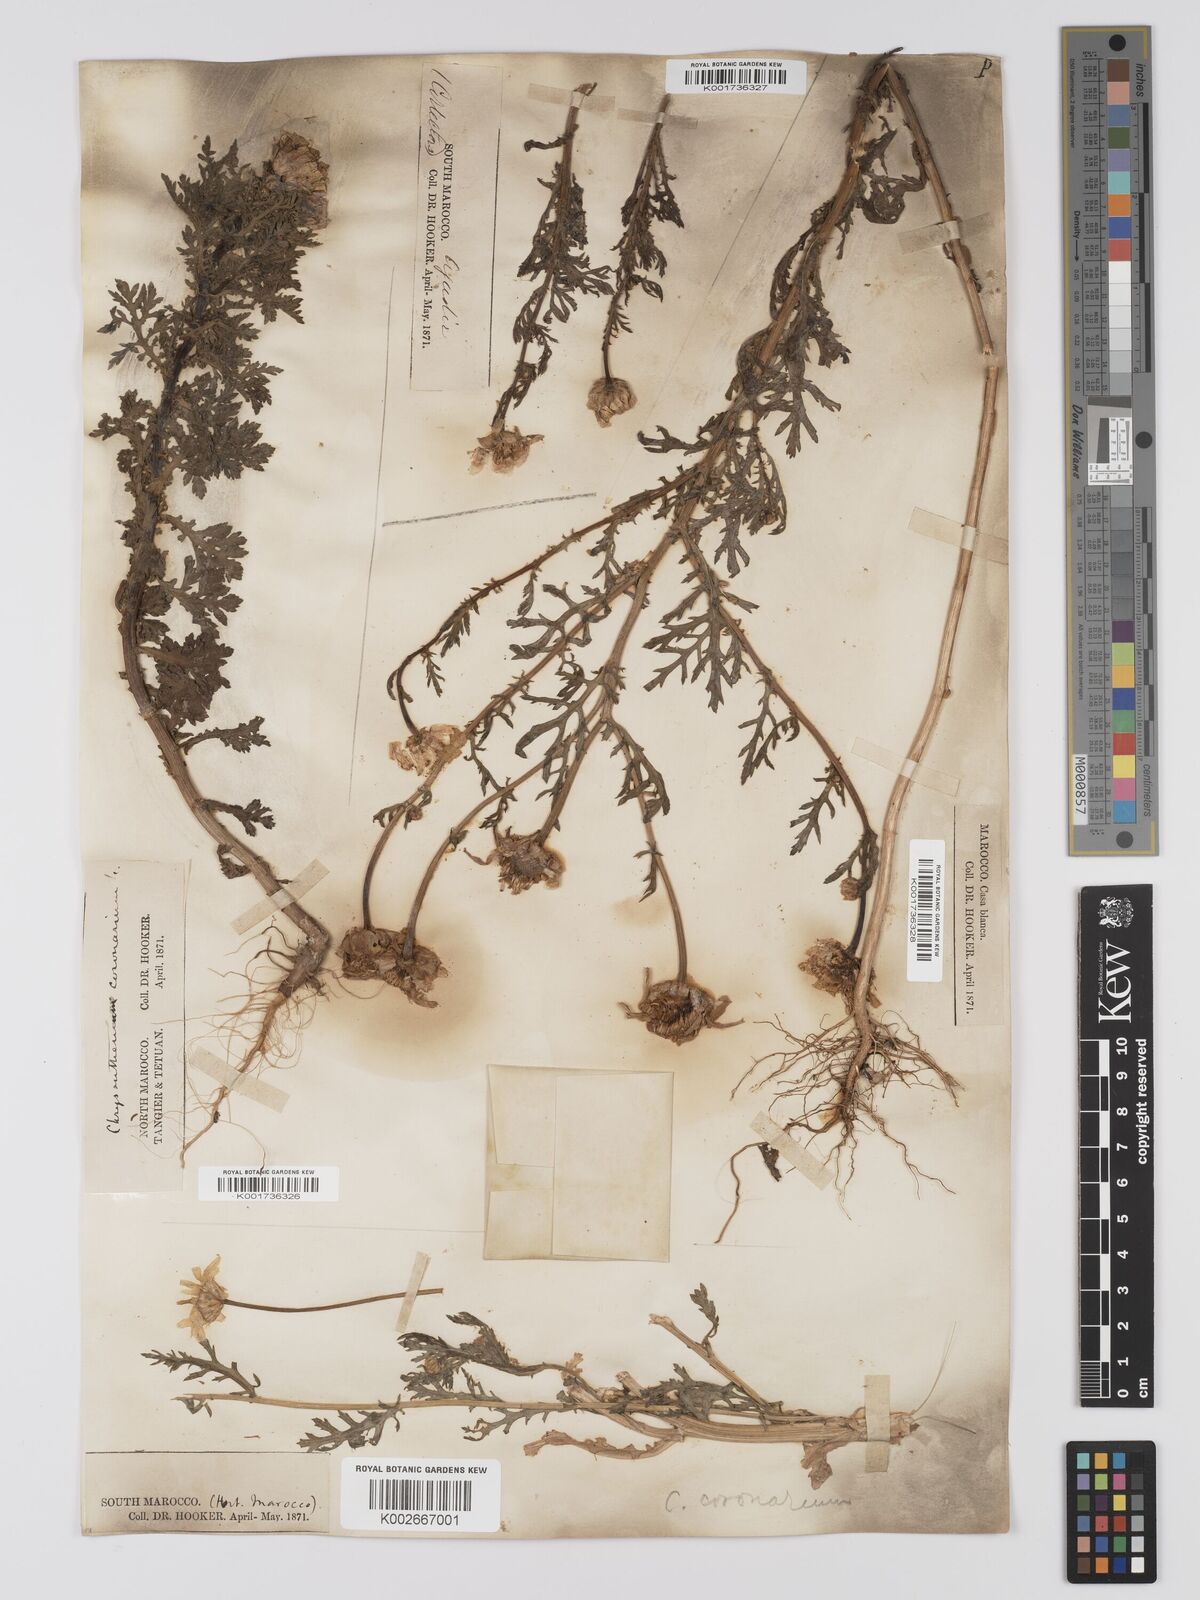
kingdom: Plantae
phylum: Tracheophyta
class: Magnoliopsida
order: Asterales
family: Asteraceae
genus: Glebionis
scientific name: Glebionis coronaria
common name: Crowndaisy
